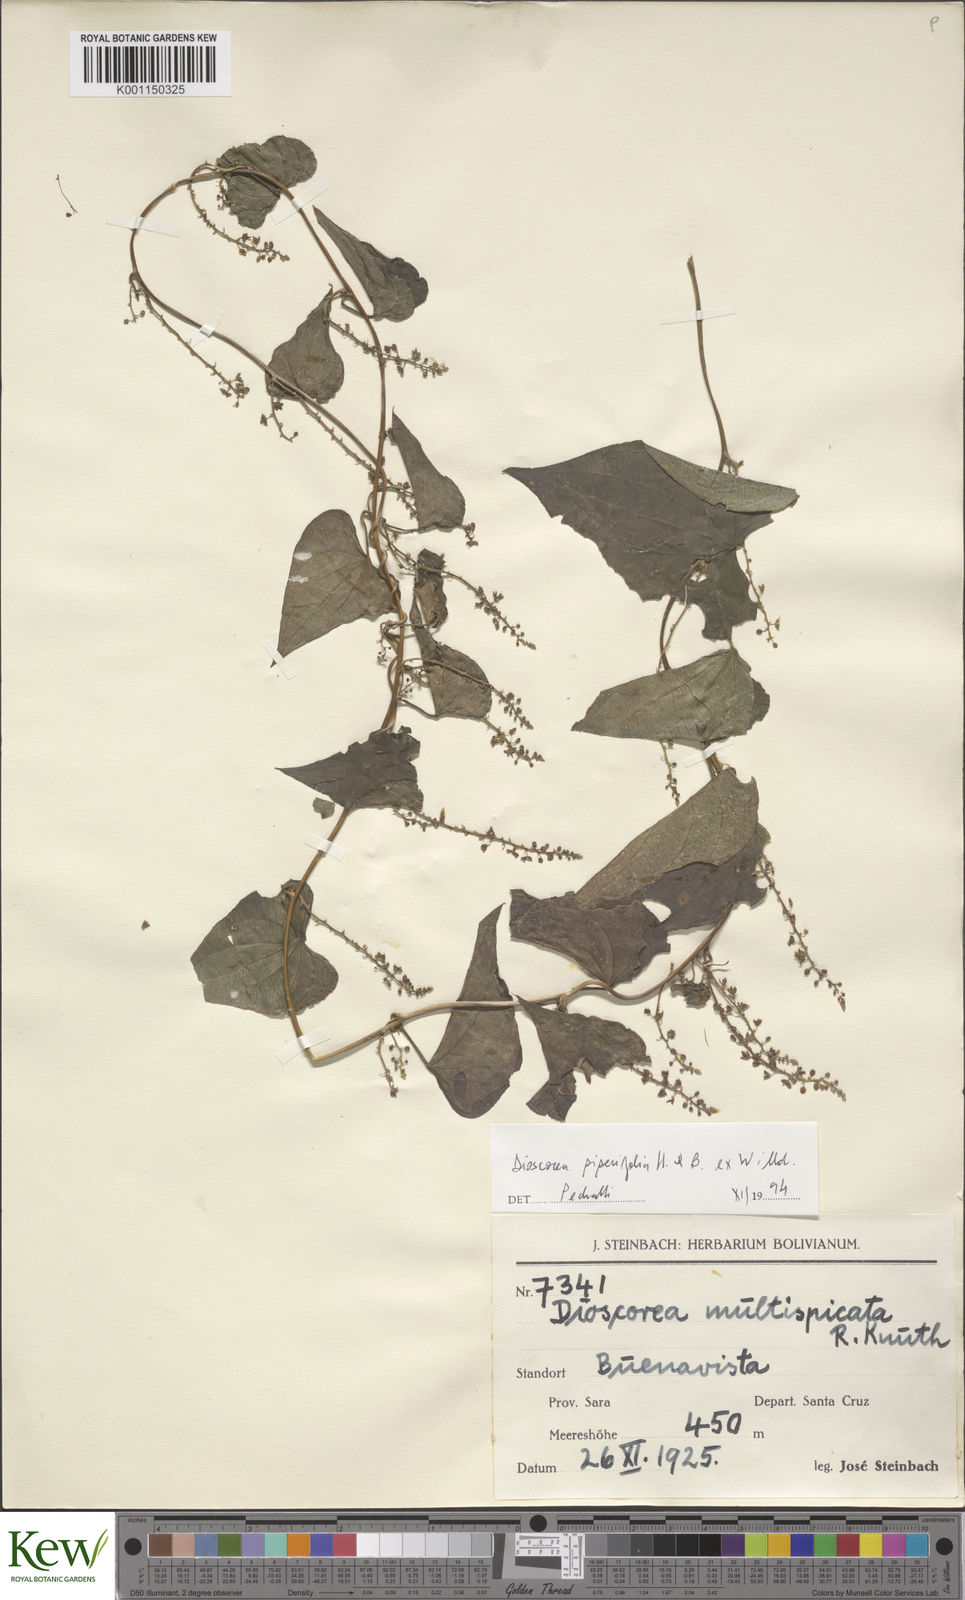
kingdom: Plantae
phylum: Tracheophyta
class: Liliopsida
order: Dioscoreales
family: Dioscoreaceae
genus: Dioscorea
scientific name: Dioscorea piperifolia
